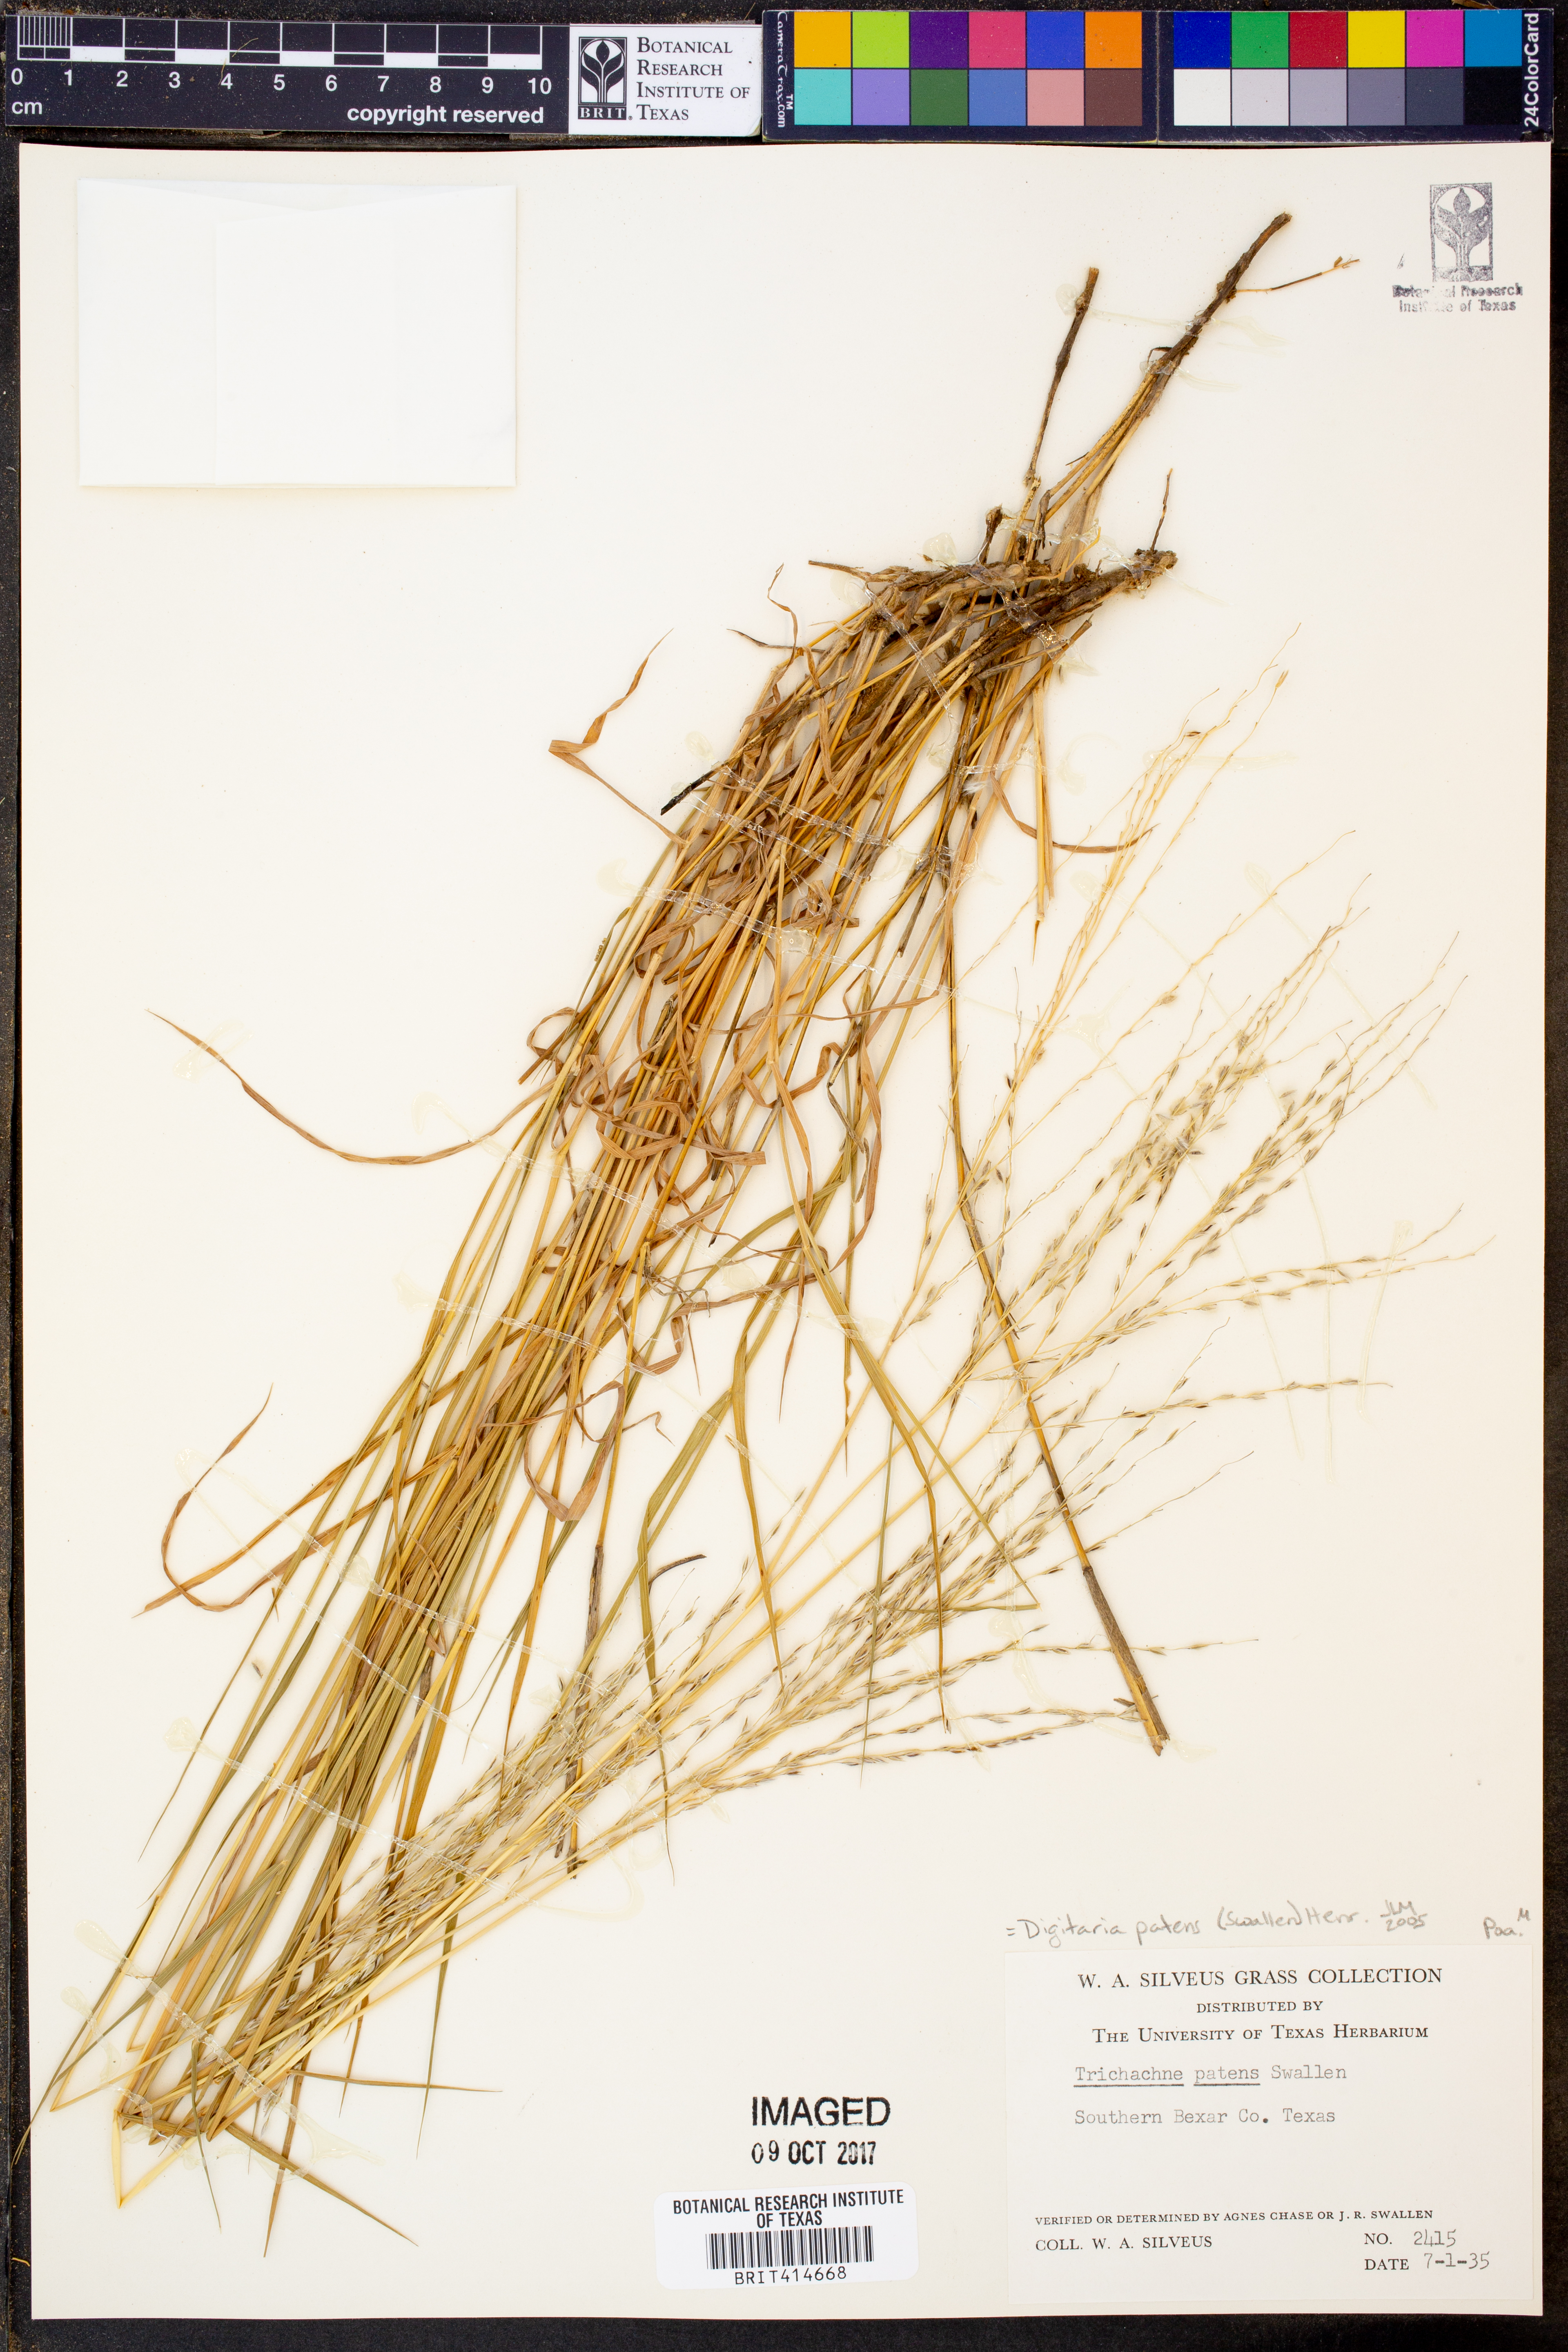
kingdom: Plantae
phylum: Tracheophyta
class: Liliopsida
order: Poales
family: Poaceae
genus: Digitaria
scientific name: Digitaria patens
